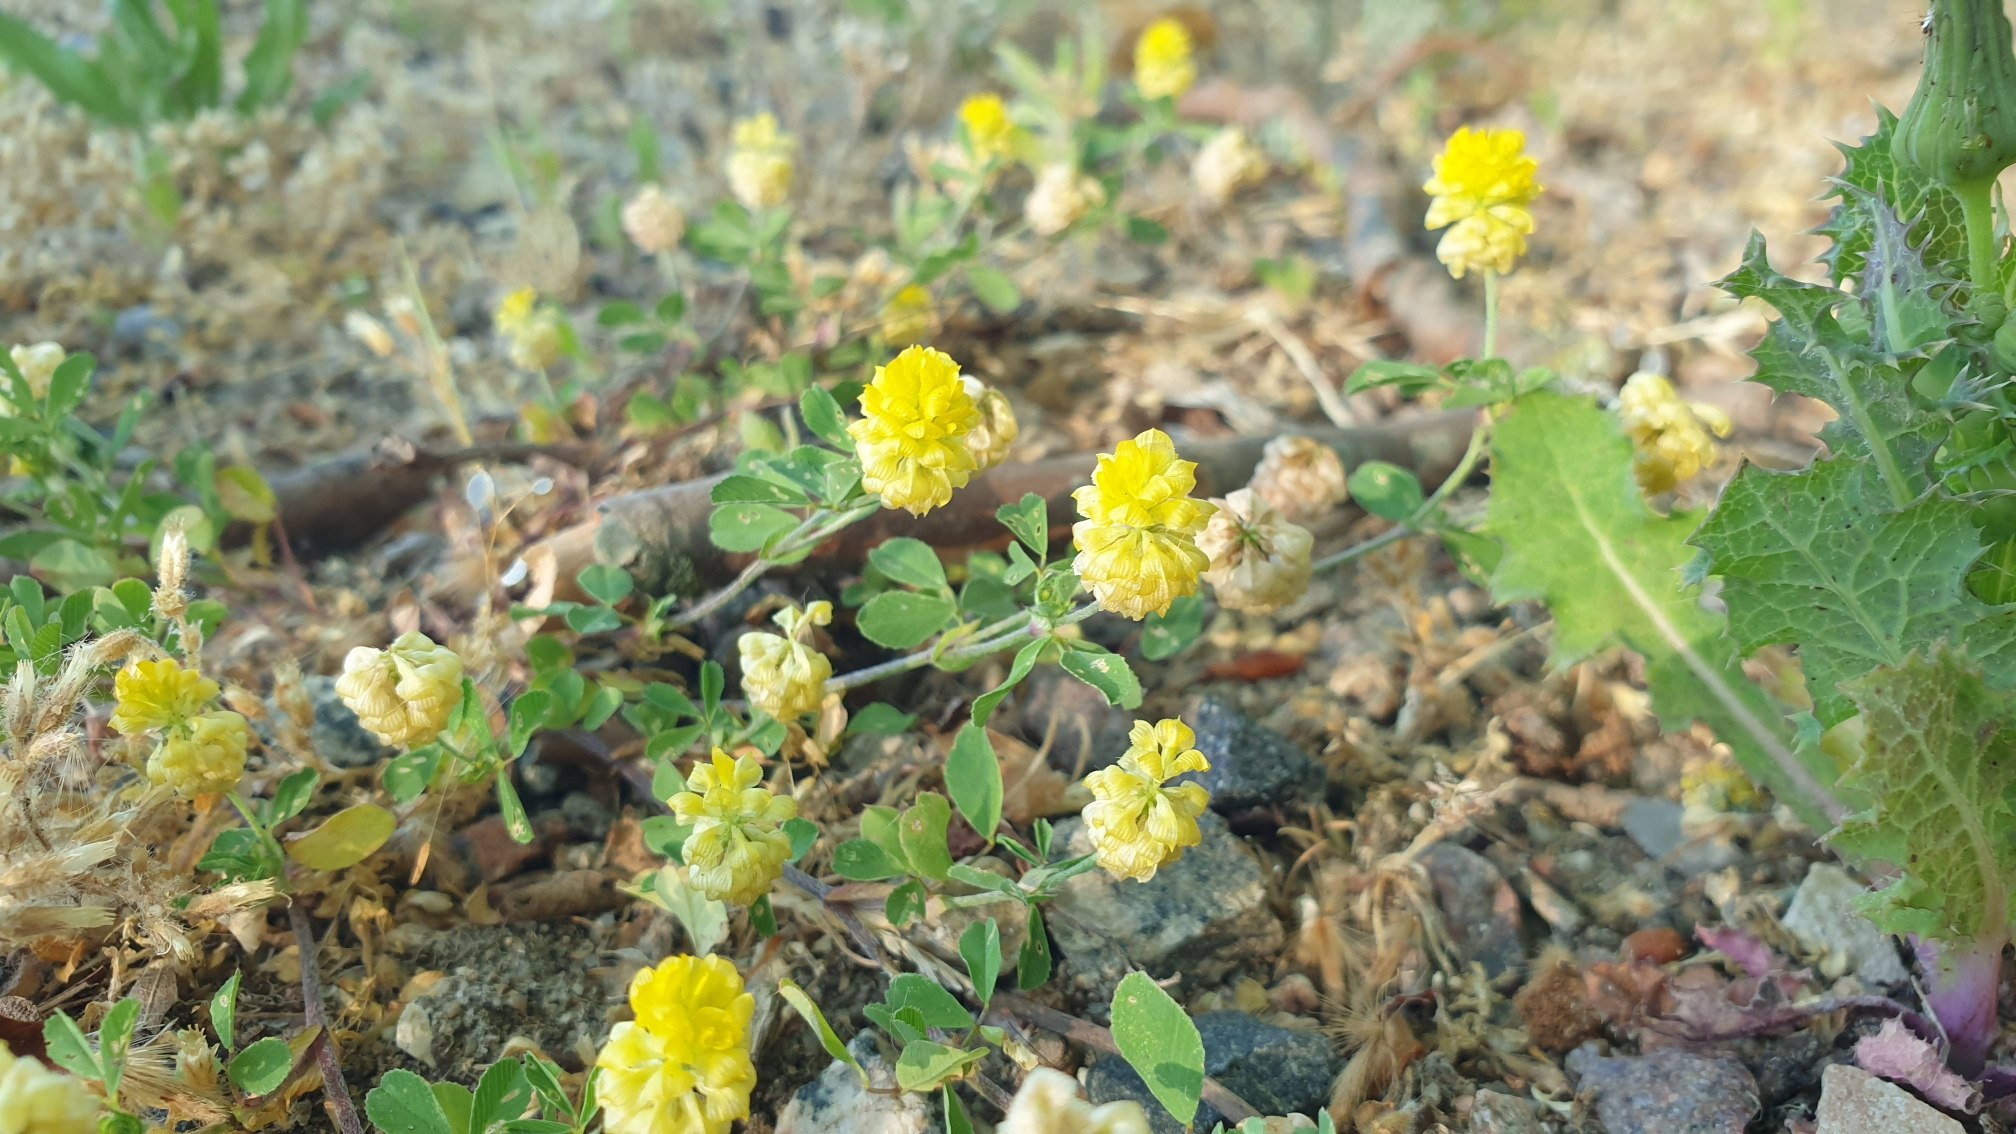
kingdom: Plantae
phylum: Tracheophyta
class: Magnoliopsida
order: Fabales
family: Fabaceae
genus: Trifolium
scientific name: Trifolium campestre
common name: Gul kløver
